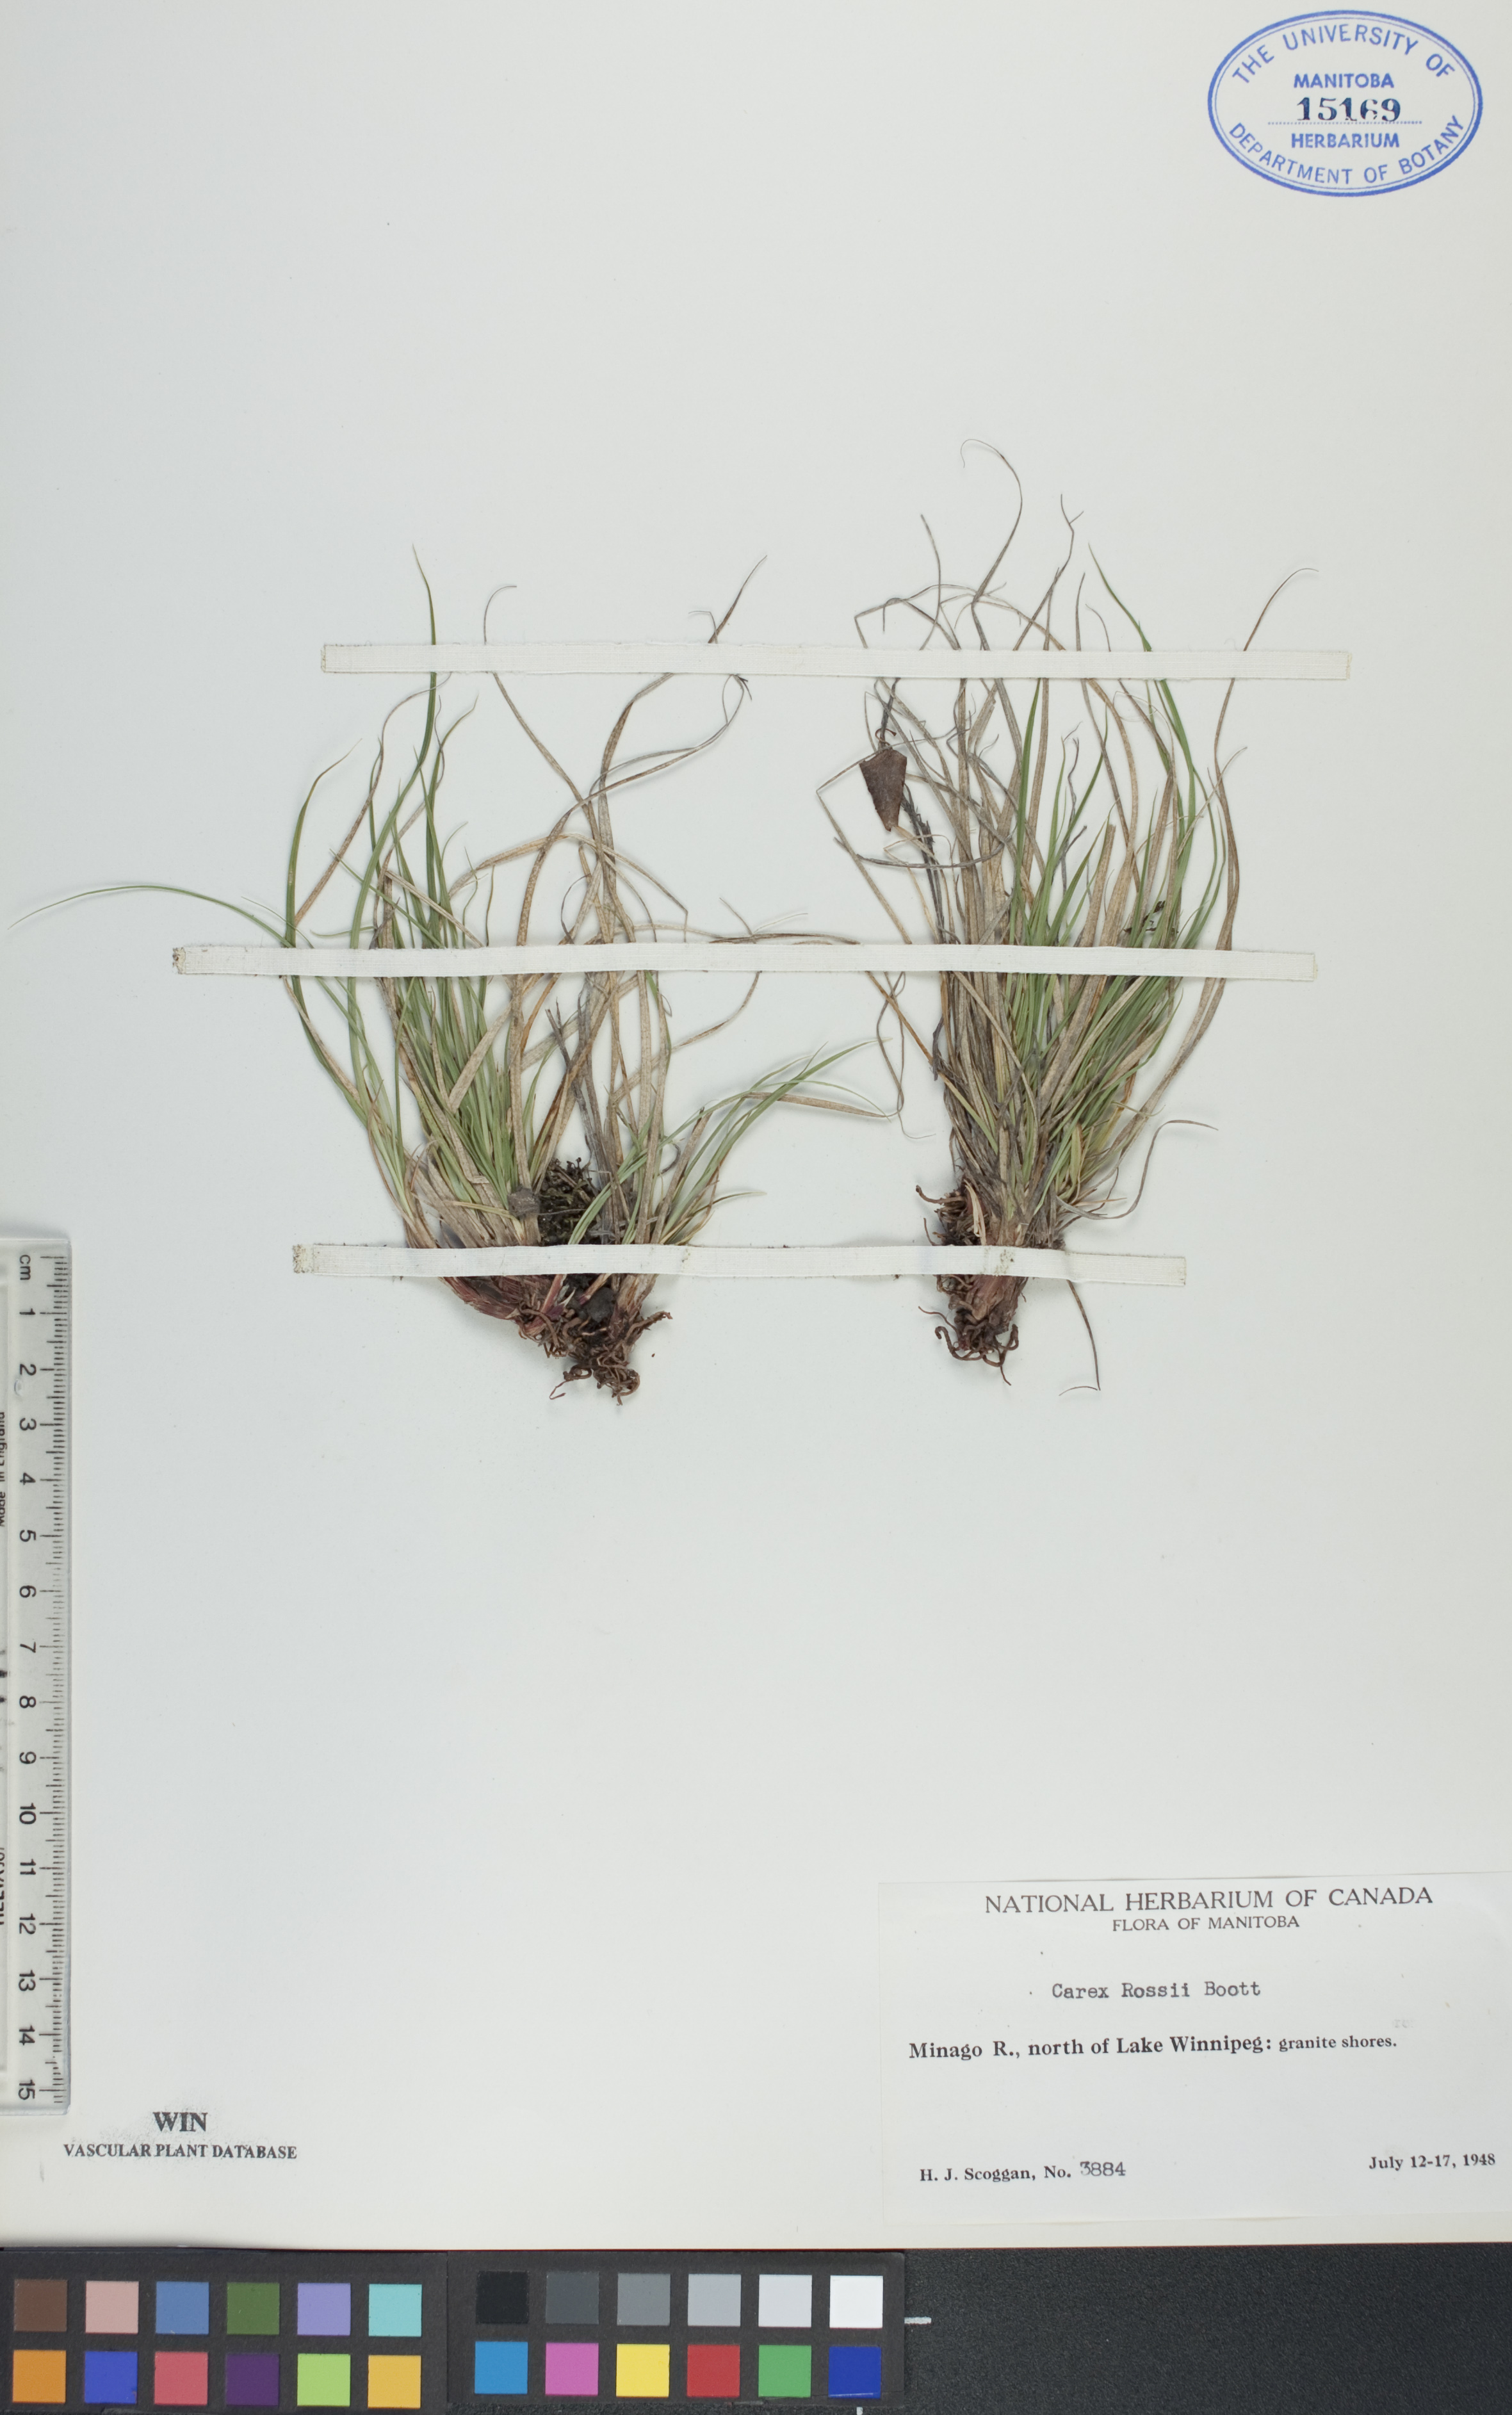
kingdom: Plantae
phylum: Tracheophyta
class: Liliopsida
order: Poales
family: Cyperaceae
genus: Carex
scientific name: Carex rossii
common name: Ross' sedge
